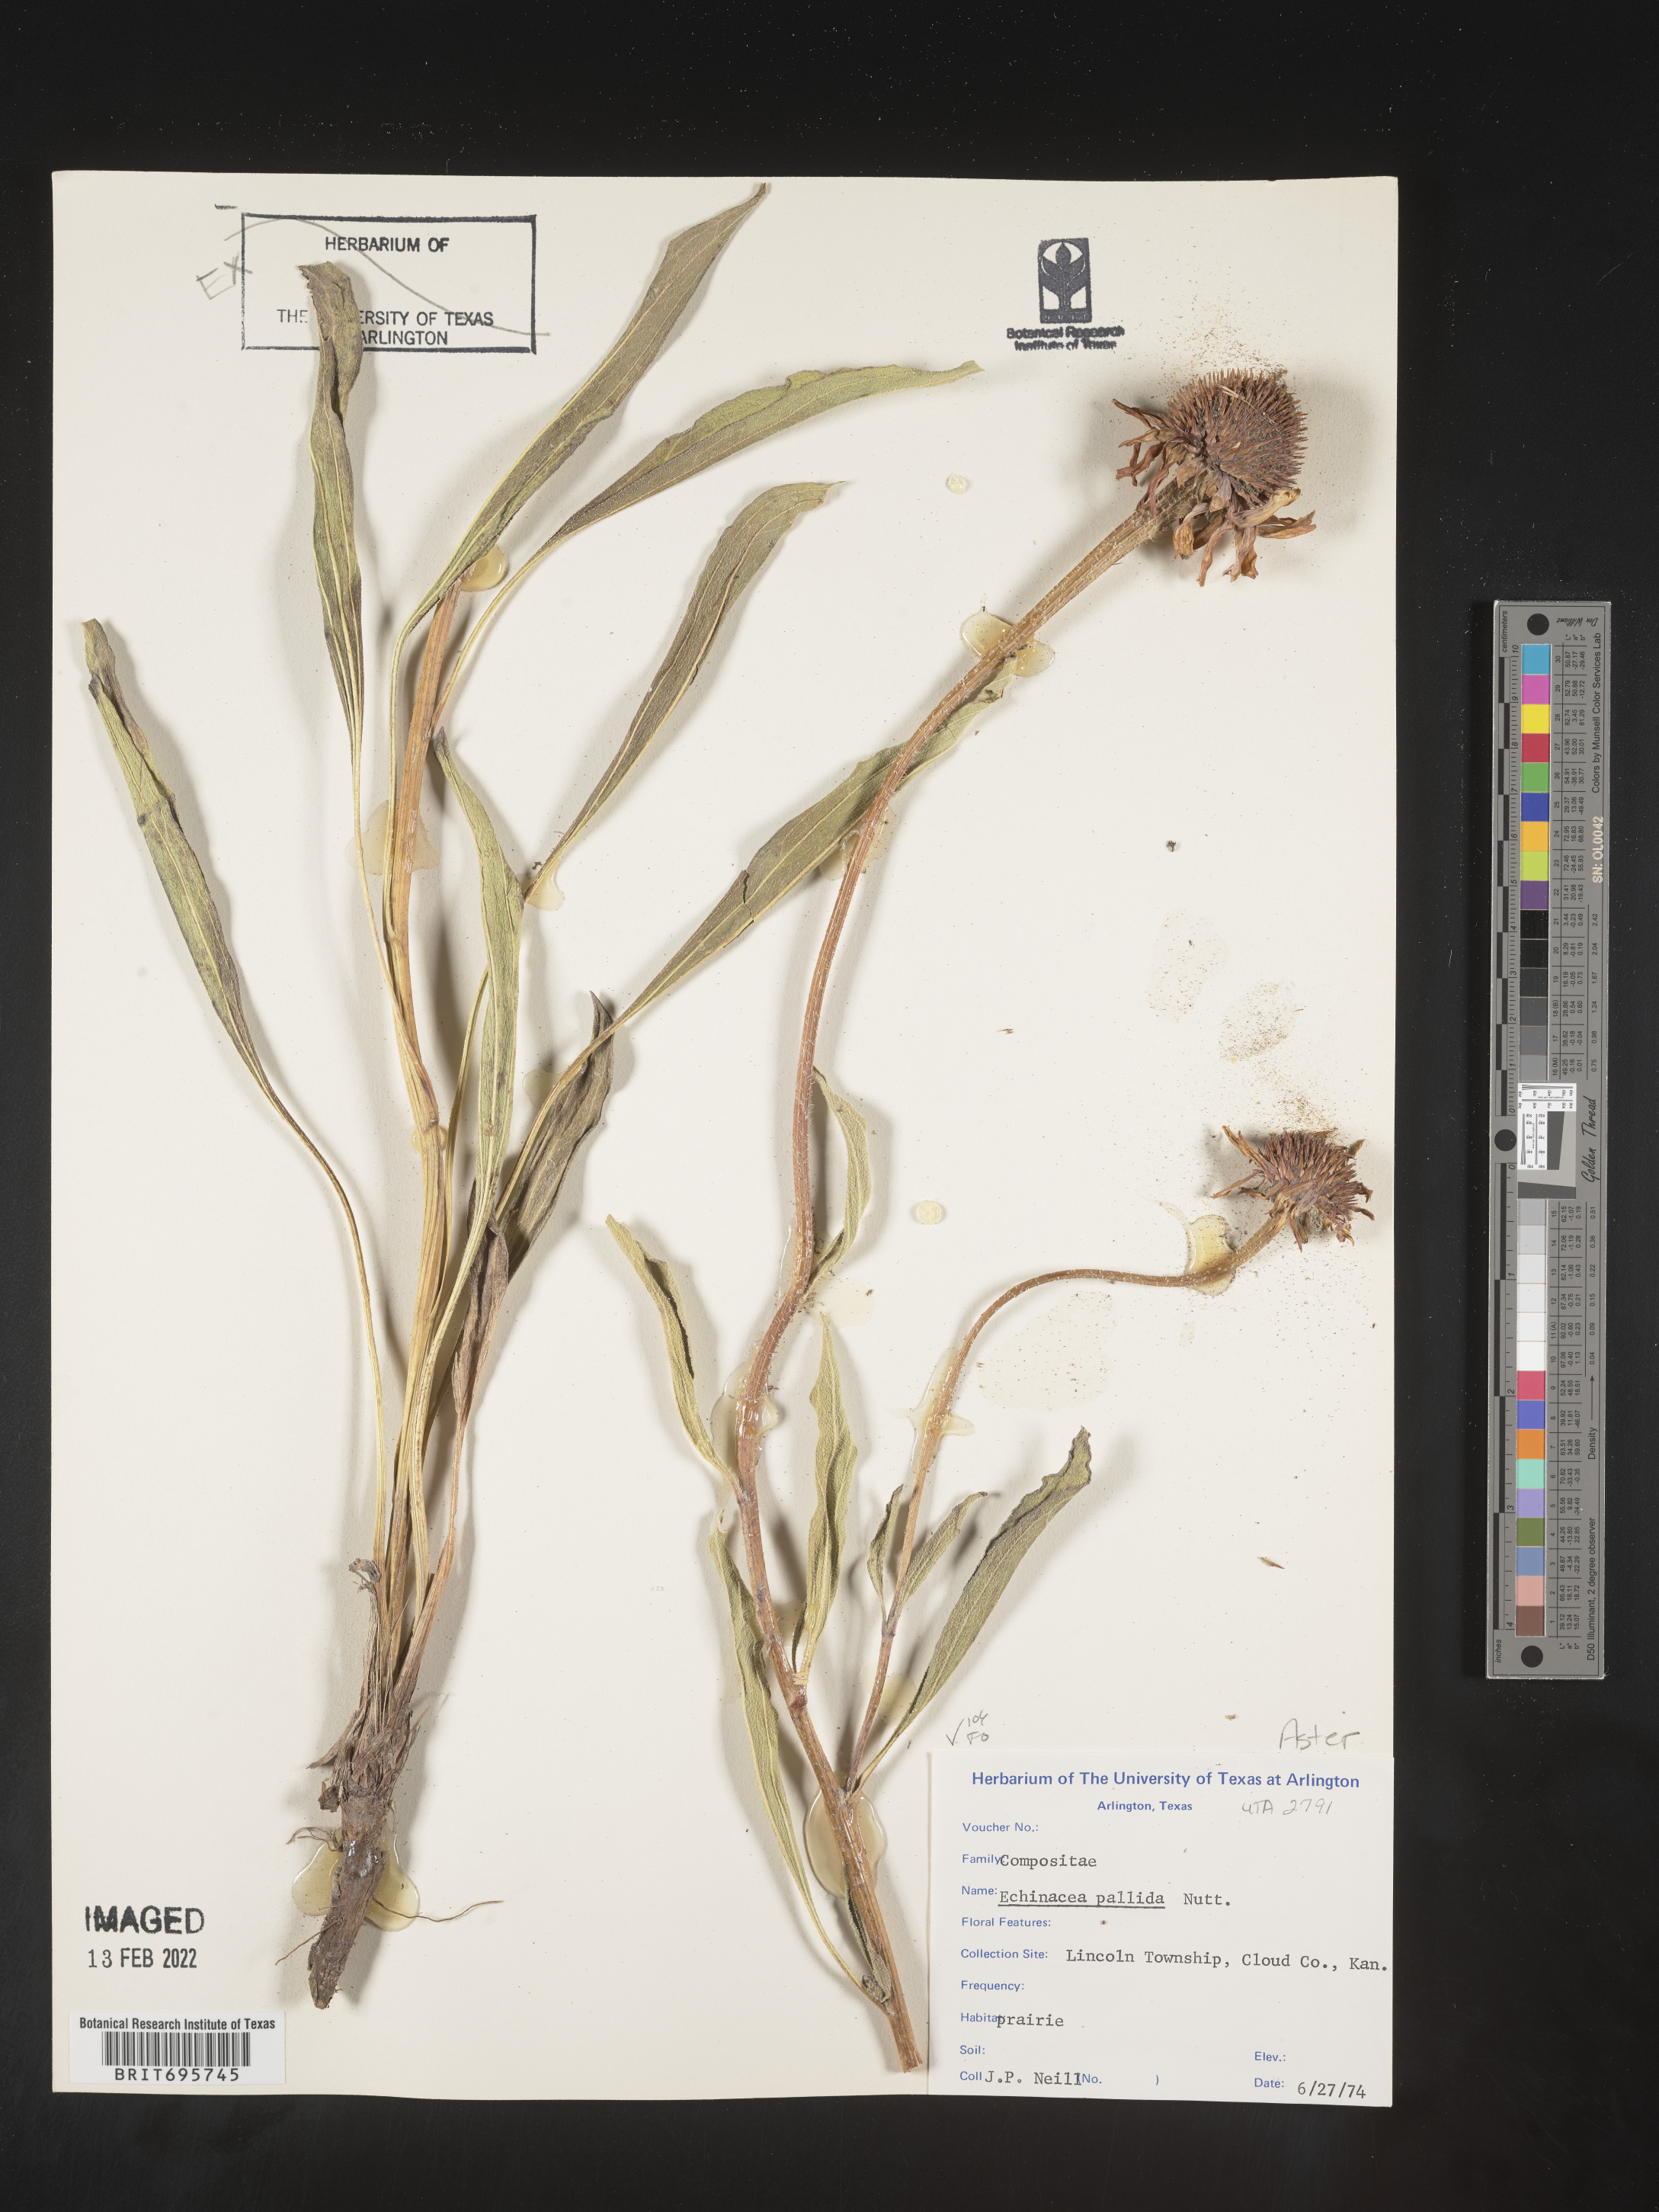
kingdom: Plantae
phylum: Tracheophyta
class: Magnoliopsida
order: Asterales
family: Asteraceae
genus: Echinacea
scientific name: Echinacea pallida
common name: Pale echinacea
